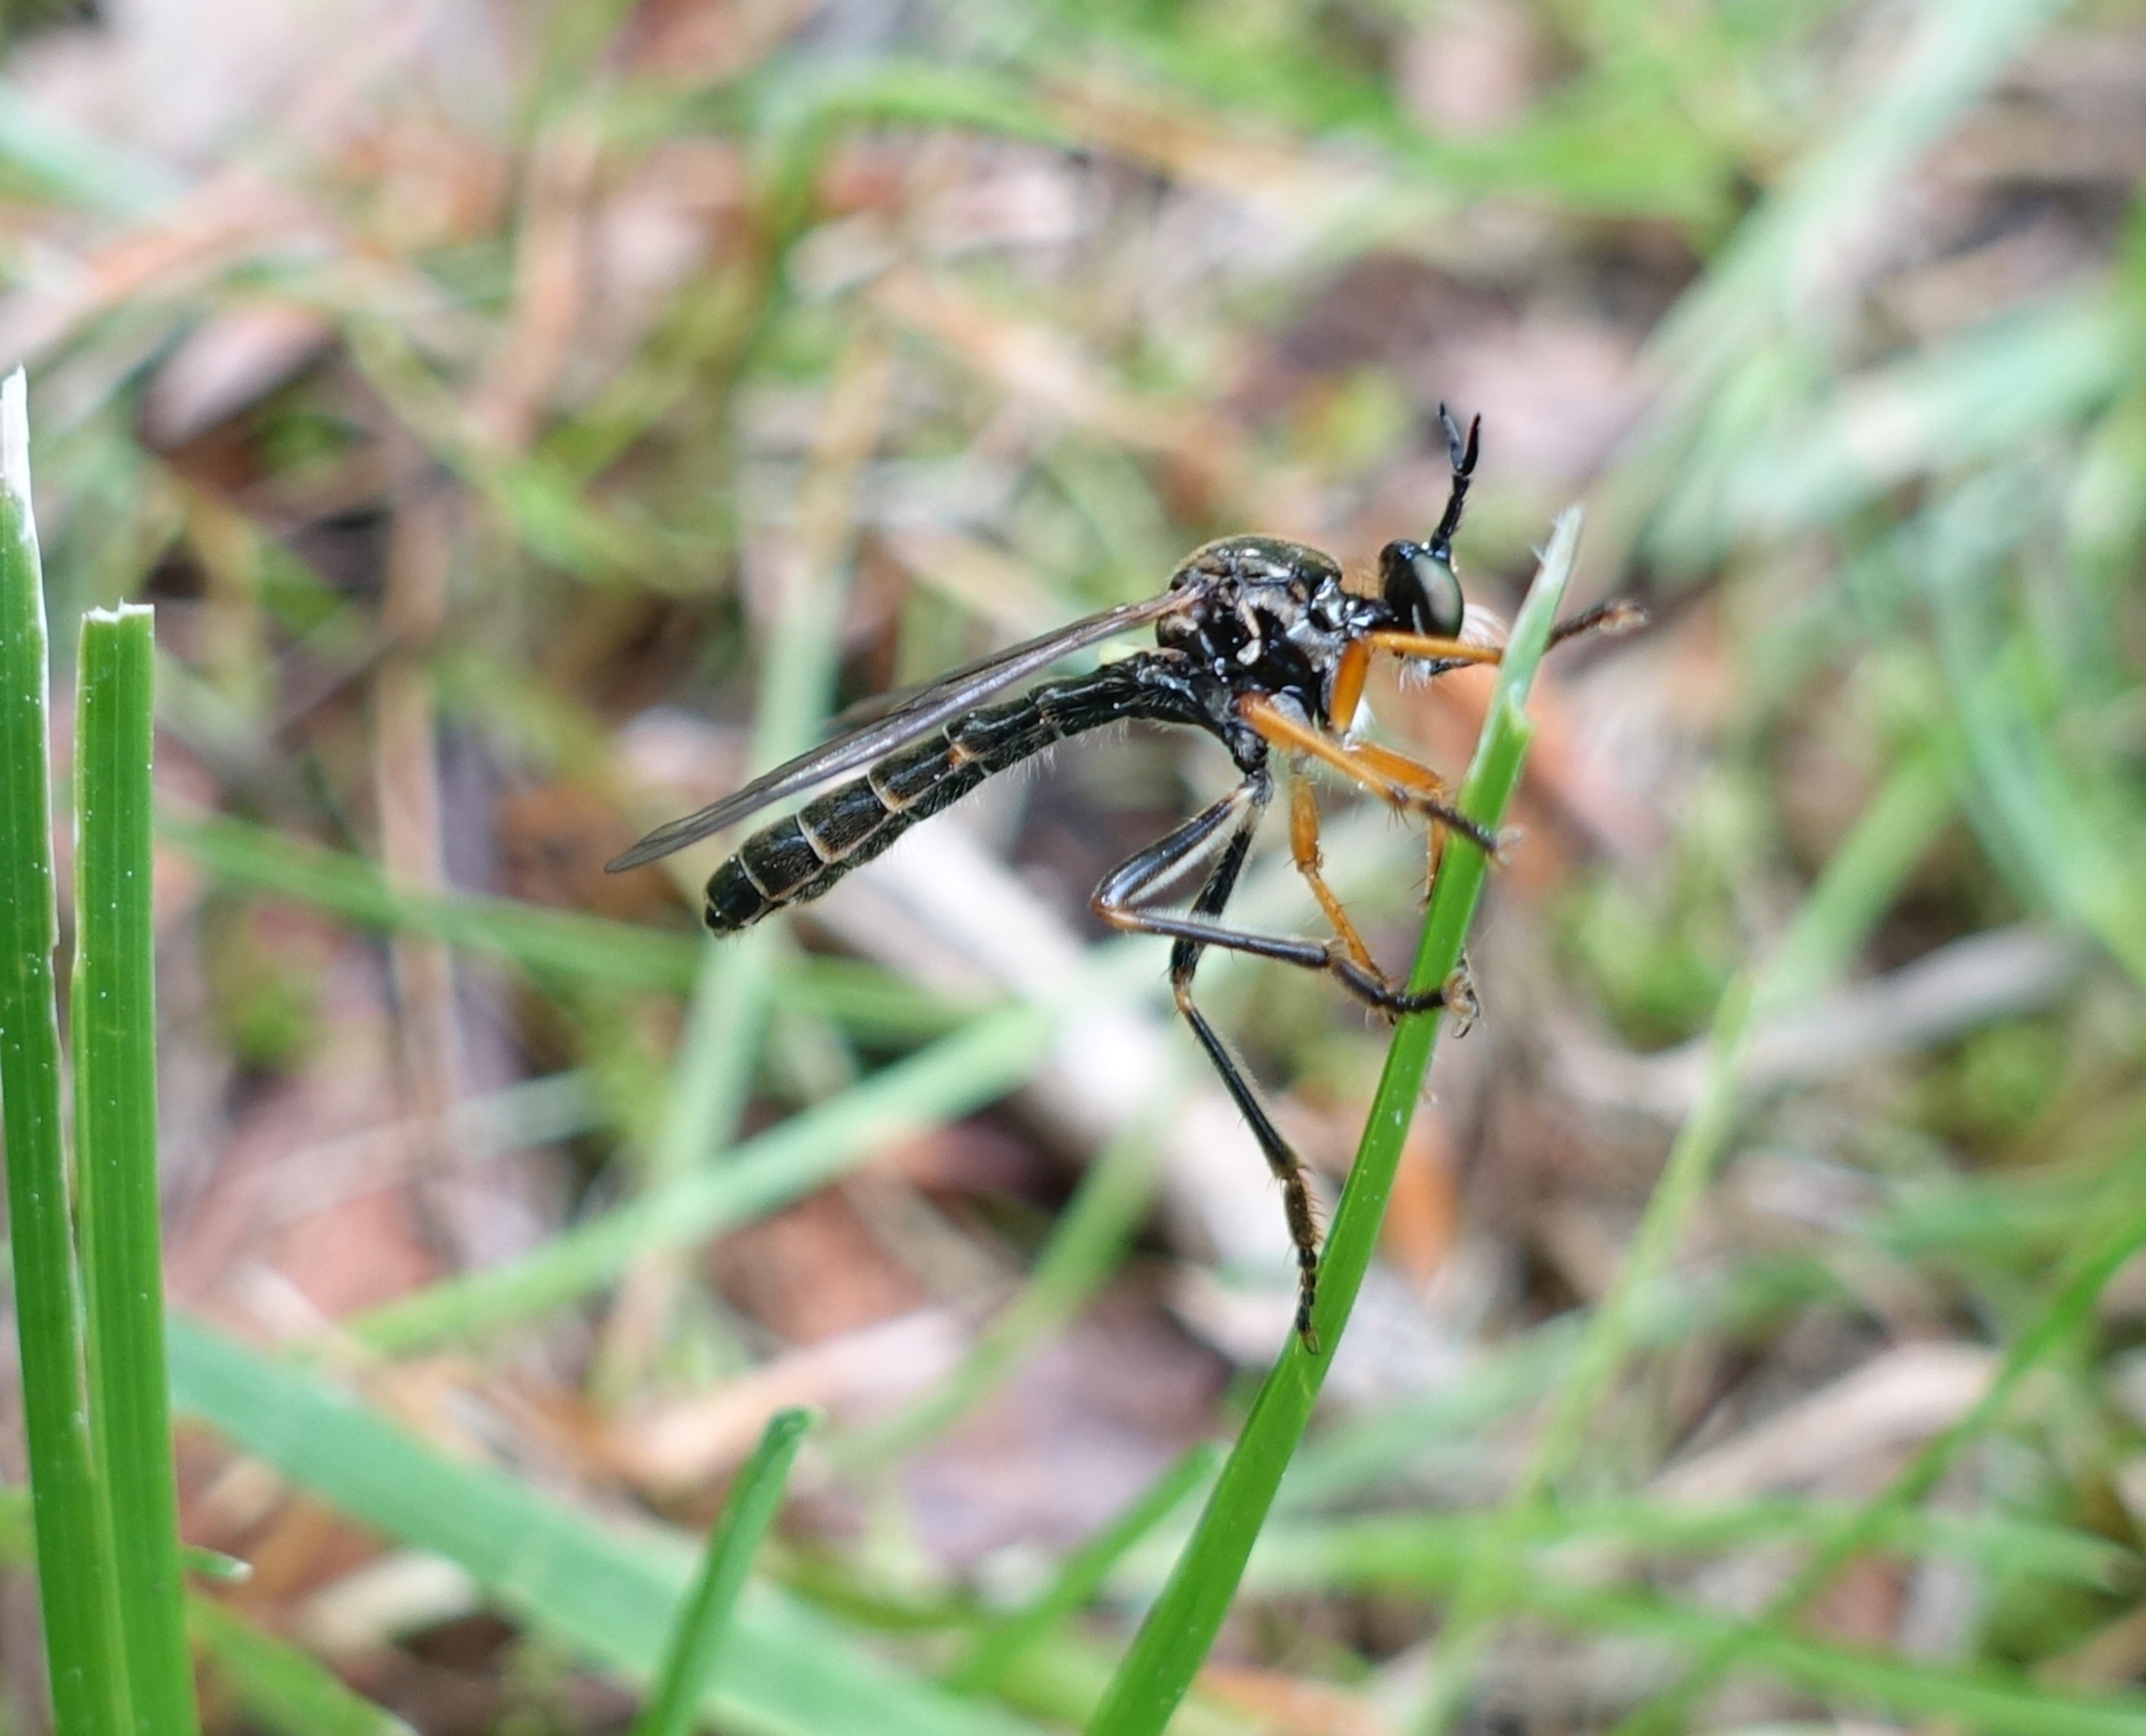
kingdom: Animalia
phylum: Arthropoda
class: Insecta
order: Diptera
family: Asilidae
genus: Dioctria
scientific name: Dioctria rufipes
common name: Rødbenet engrovflue
